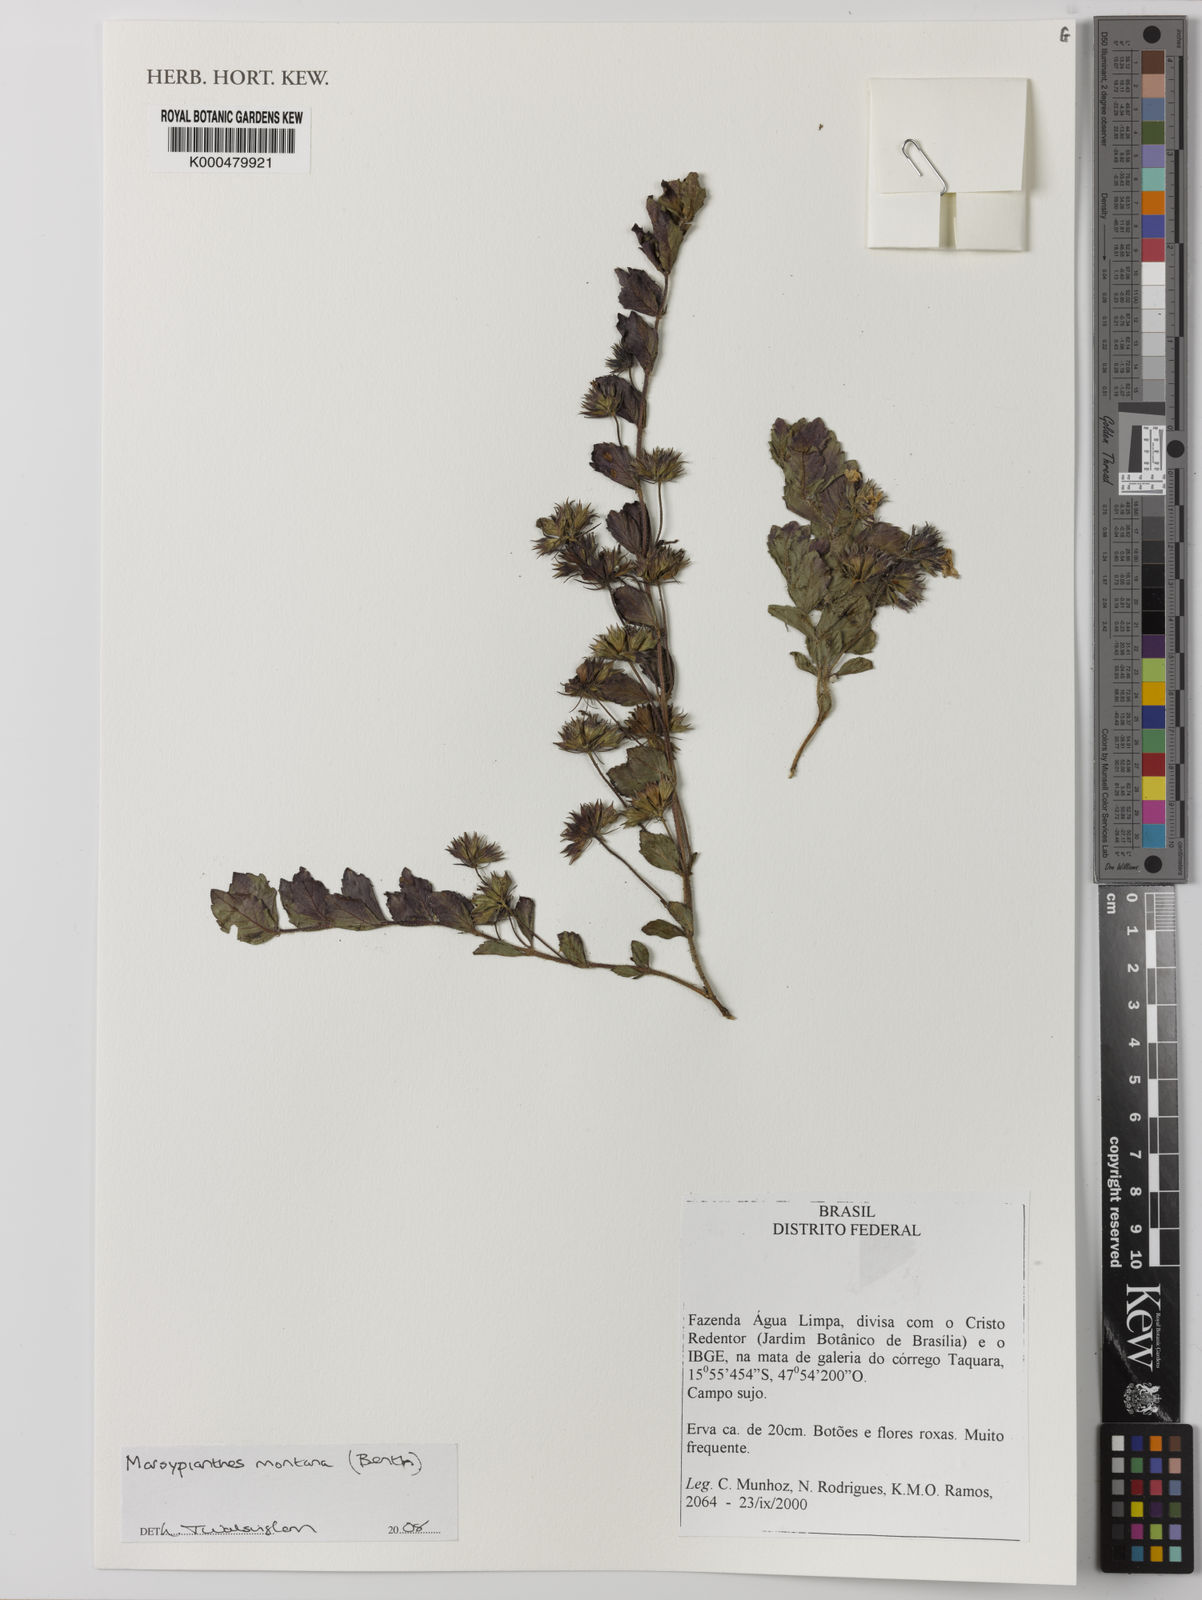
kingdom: Plantae
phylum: Tracheophyta
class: Magnoliopsida
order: Lamiales
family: Lamiaceae
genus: Marsypianthes
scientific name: Marsypianthes montana
